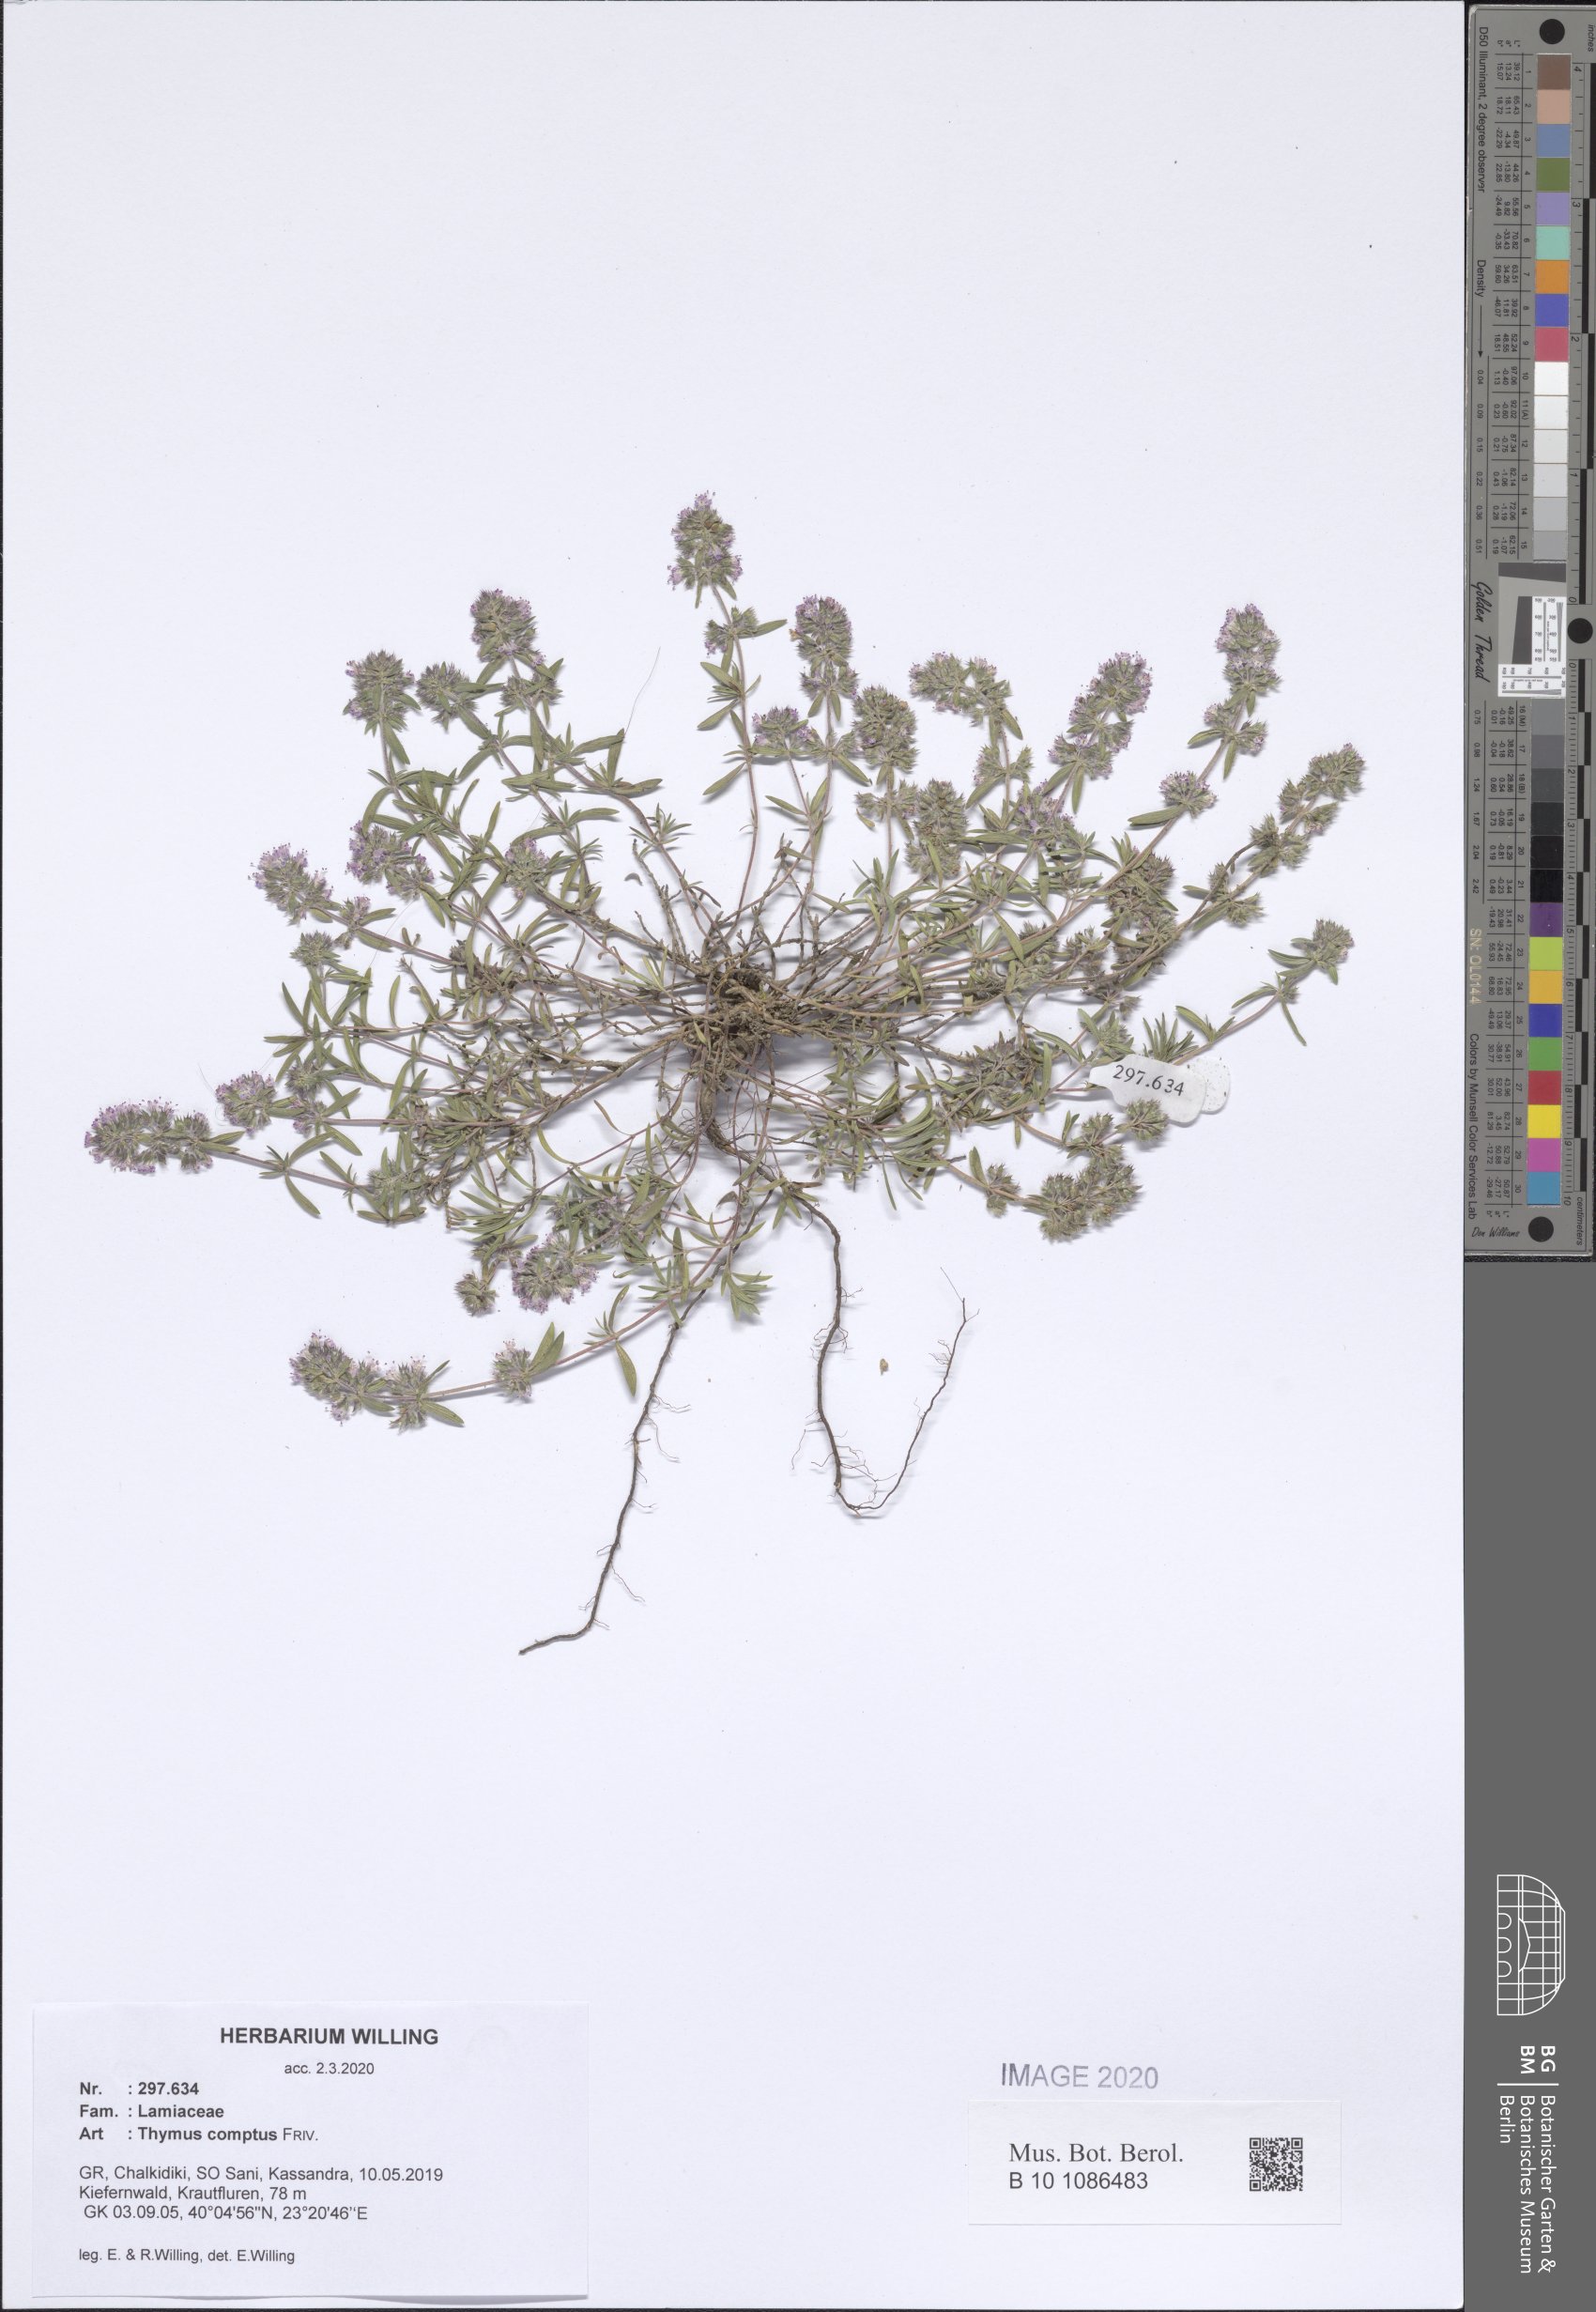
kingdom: Plantae
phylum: Tracheophyta
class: Magnoliopsida
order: Lamiales
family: Lamiaceae
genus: Thymus
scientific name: Thymus sibthorpii
